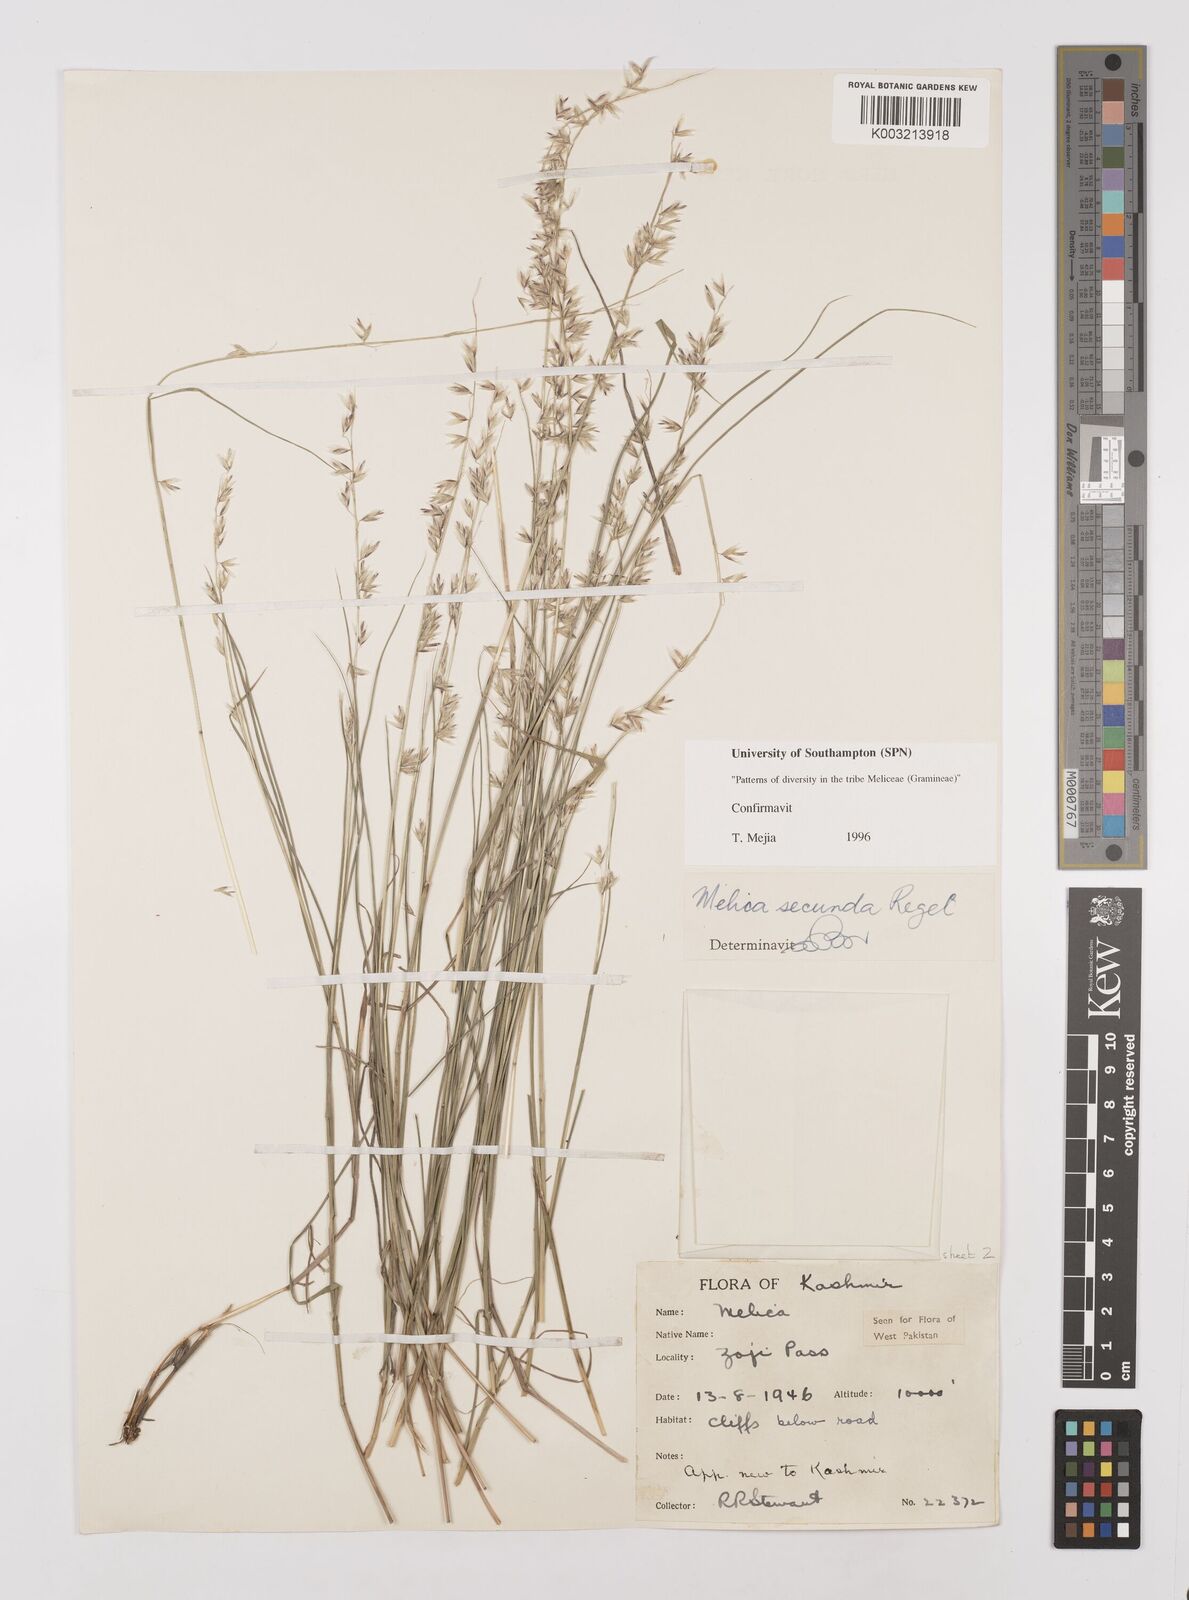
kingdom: Plantae
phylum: Tracheophyta
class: Liliopsida
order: Poales
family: Poaceae
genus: Melica
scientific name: Melica secunda
